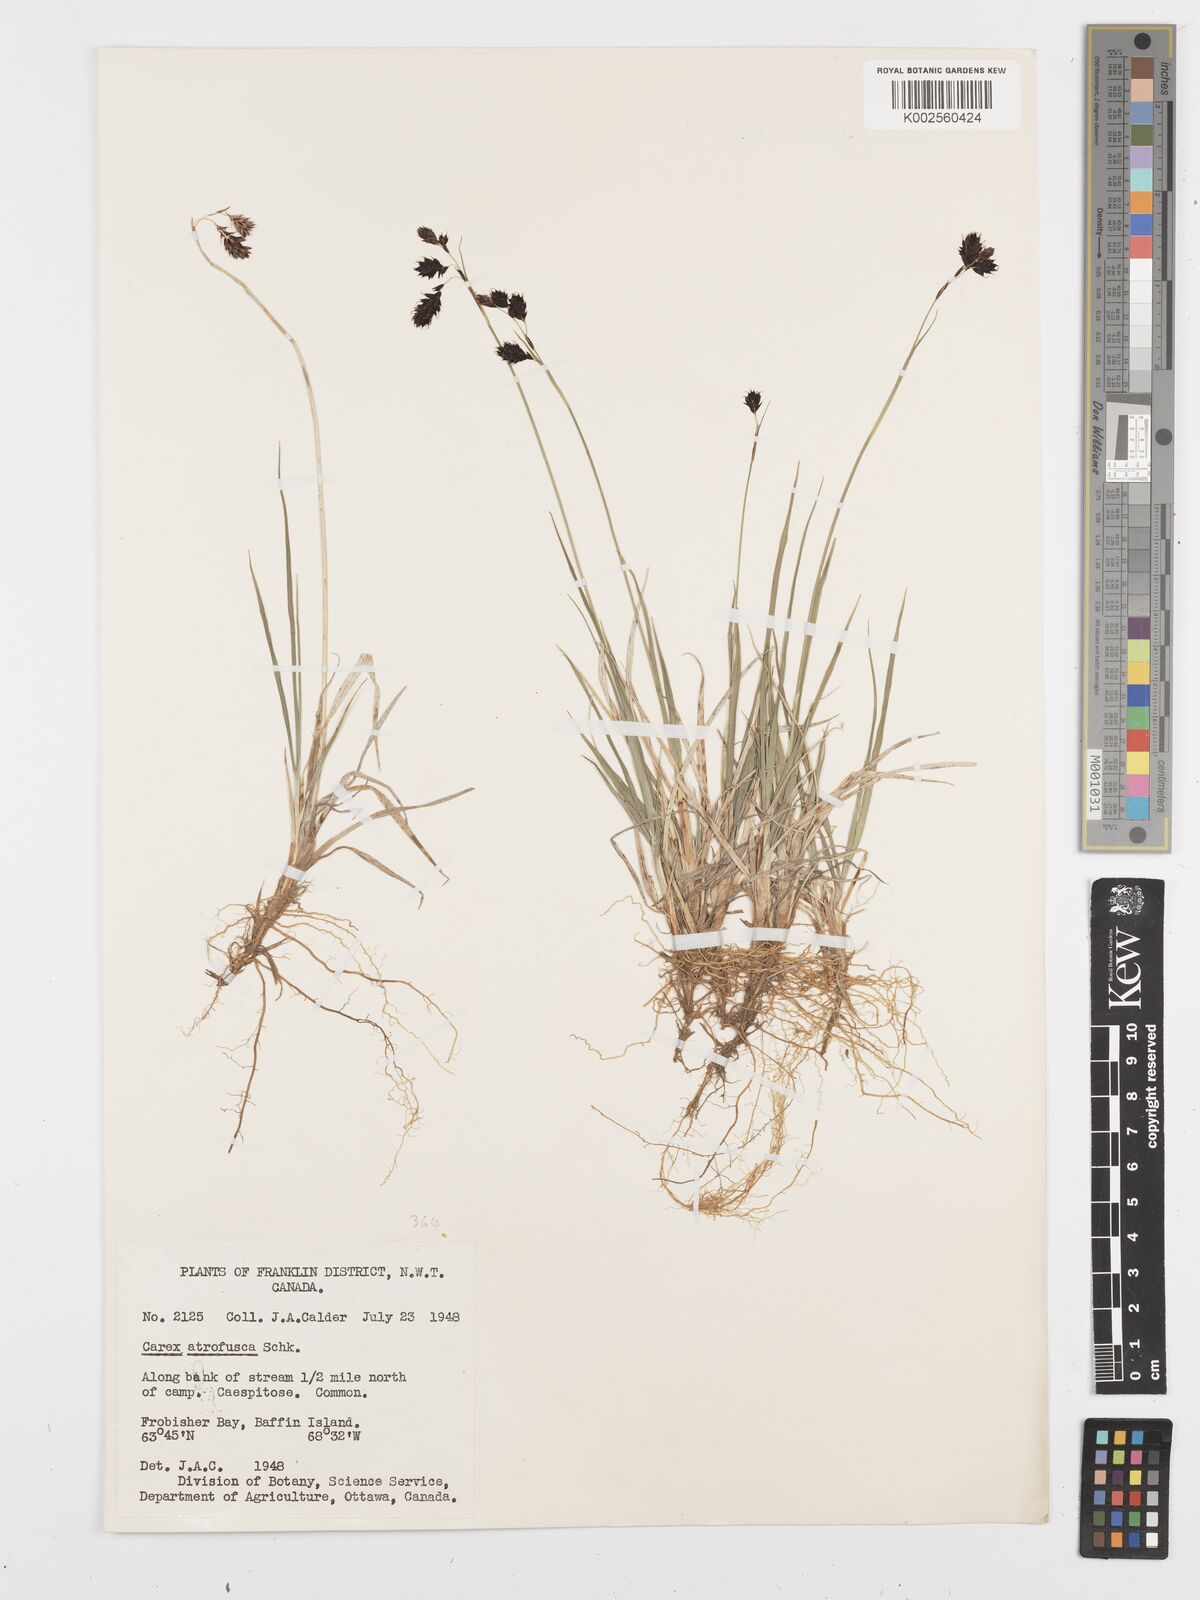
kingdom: Plantae
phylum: Tracheophyta
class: Liliopsida
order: Poales
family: Cyperaceae
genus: Carex
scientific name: Carex atrofusca
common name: Scorched alpine-sedge
